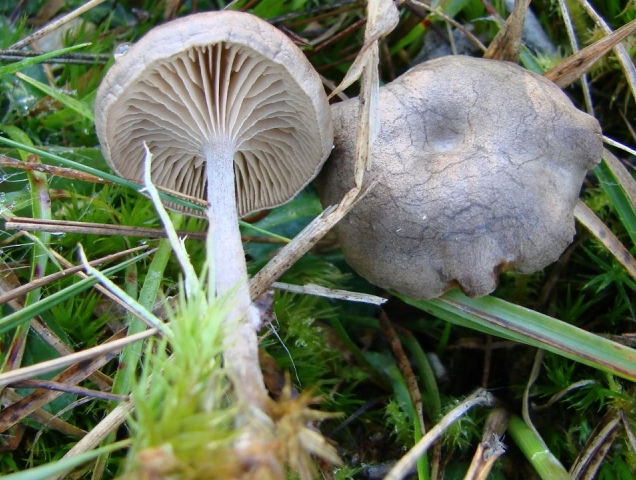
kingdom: Fungi
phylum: Basidiomycota
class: Agaricomycetes
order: Agaricales
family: Entolomataceae
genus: Clitopilus
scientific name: Clitopilus caelatus
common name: gråbrun troldhat
